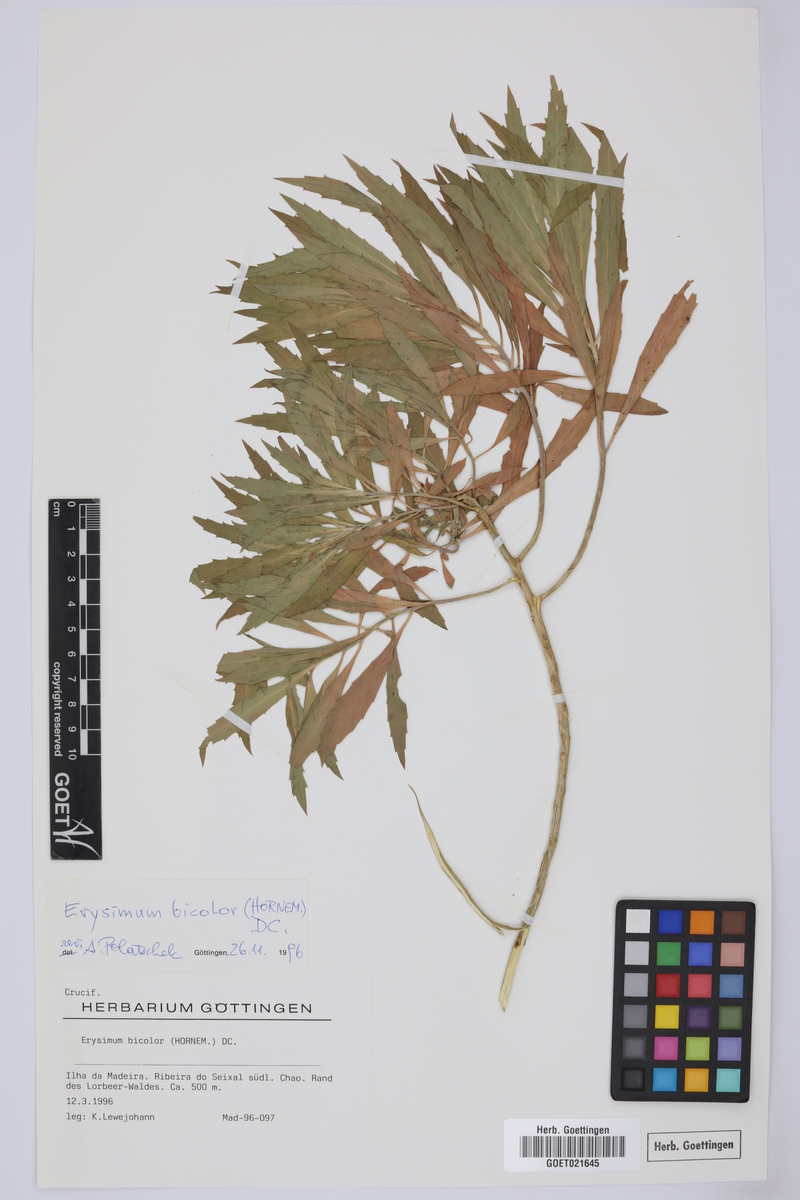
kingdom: Plantae
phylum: Tracheophyta
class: Magnoliopsida
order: Brassicales
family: Brassicaceae
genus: Erysimum
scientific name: Erysimum bicolor
